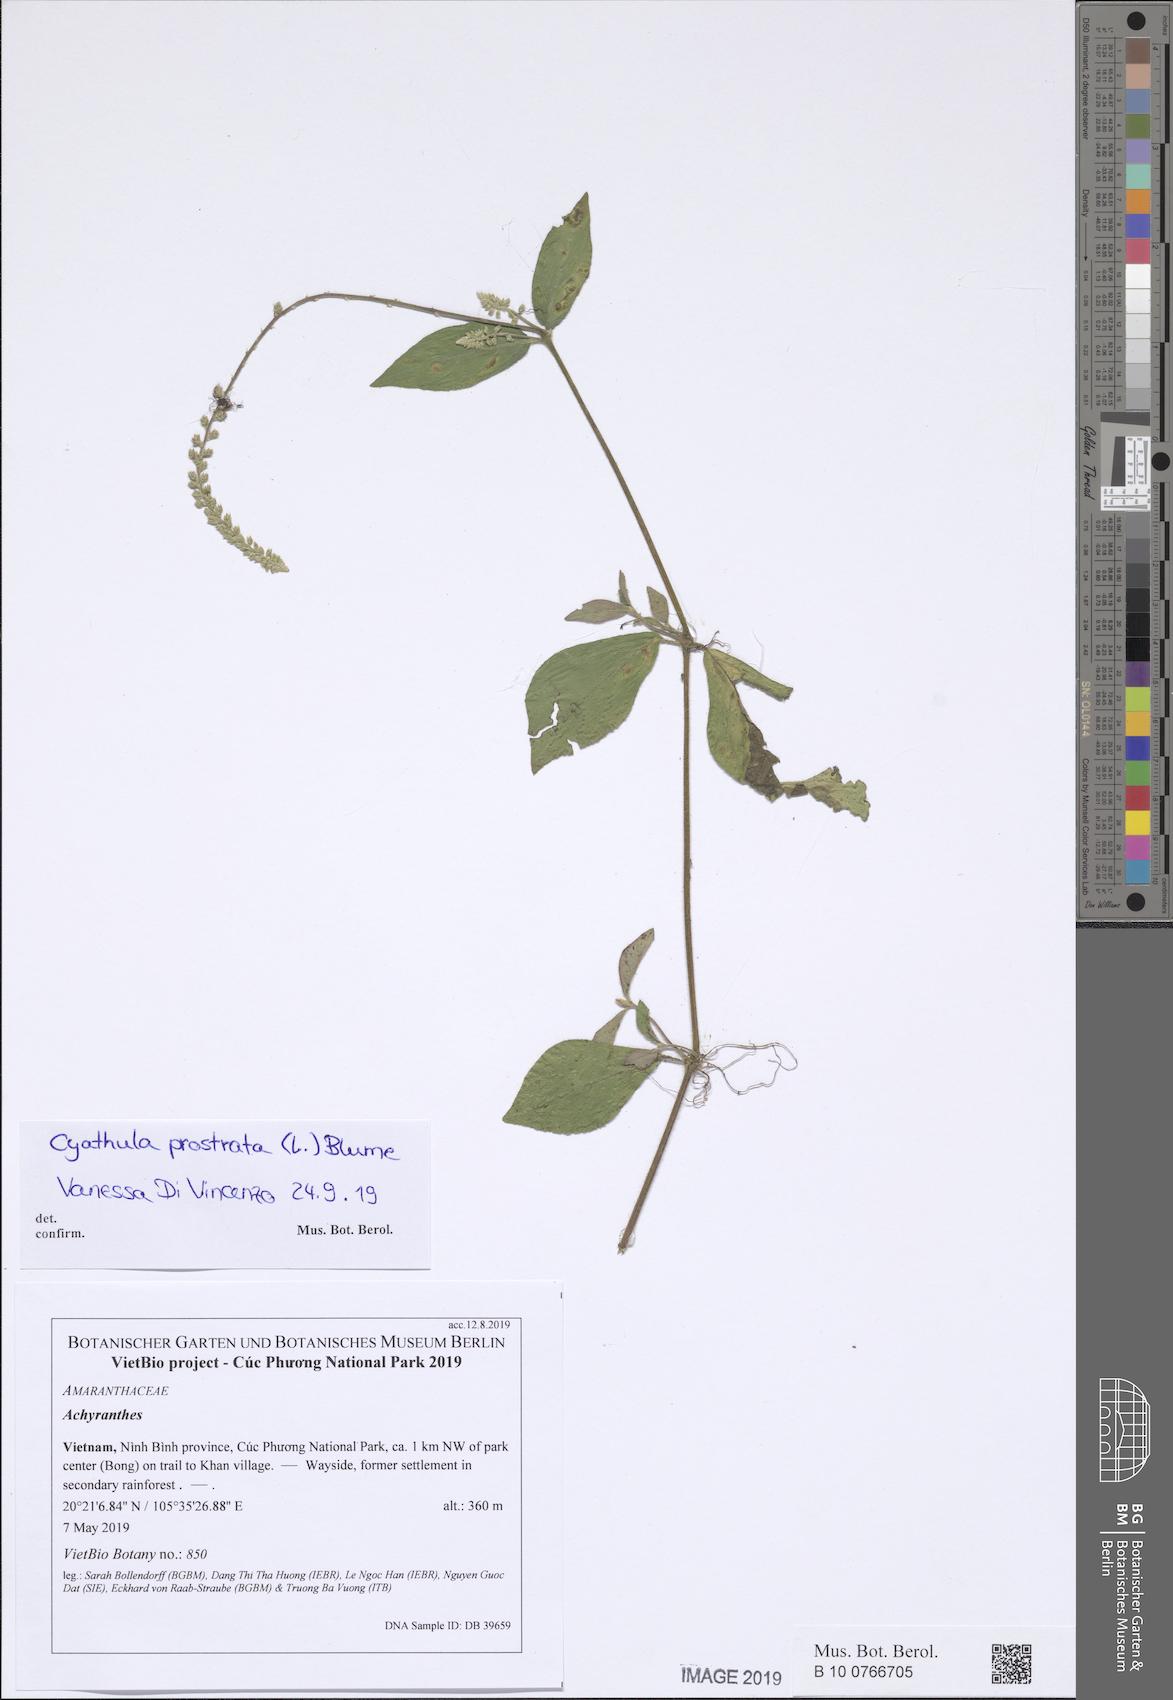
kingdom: Plantae
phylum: Tracheophyta
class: Magnoliopsida
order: Caryophyllales
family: Amaranthaceae
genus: Cyathula
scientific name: Cyathula prostrata
